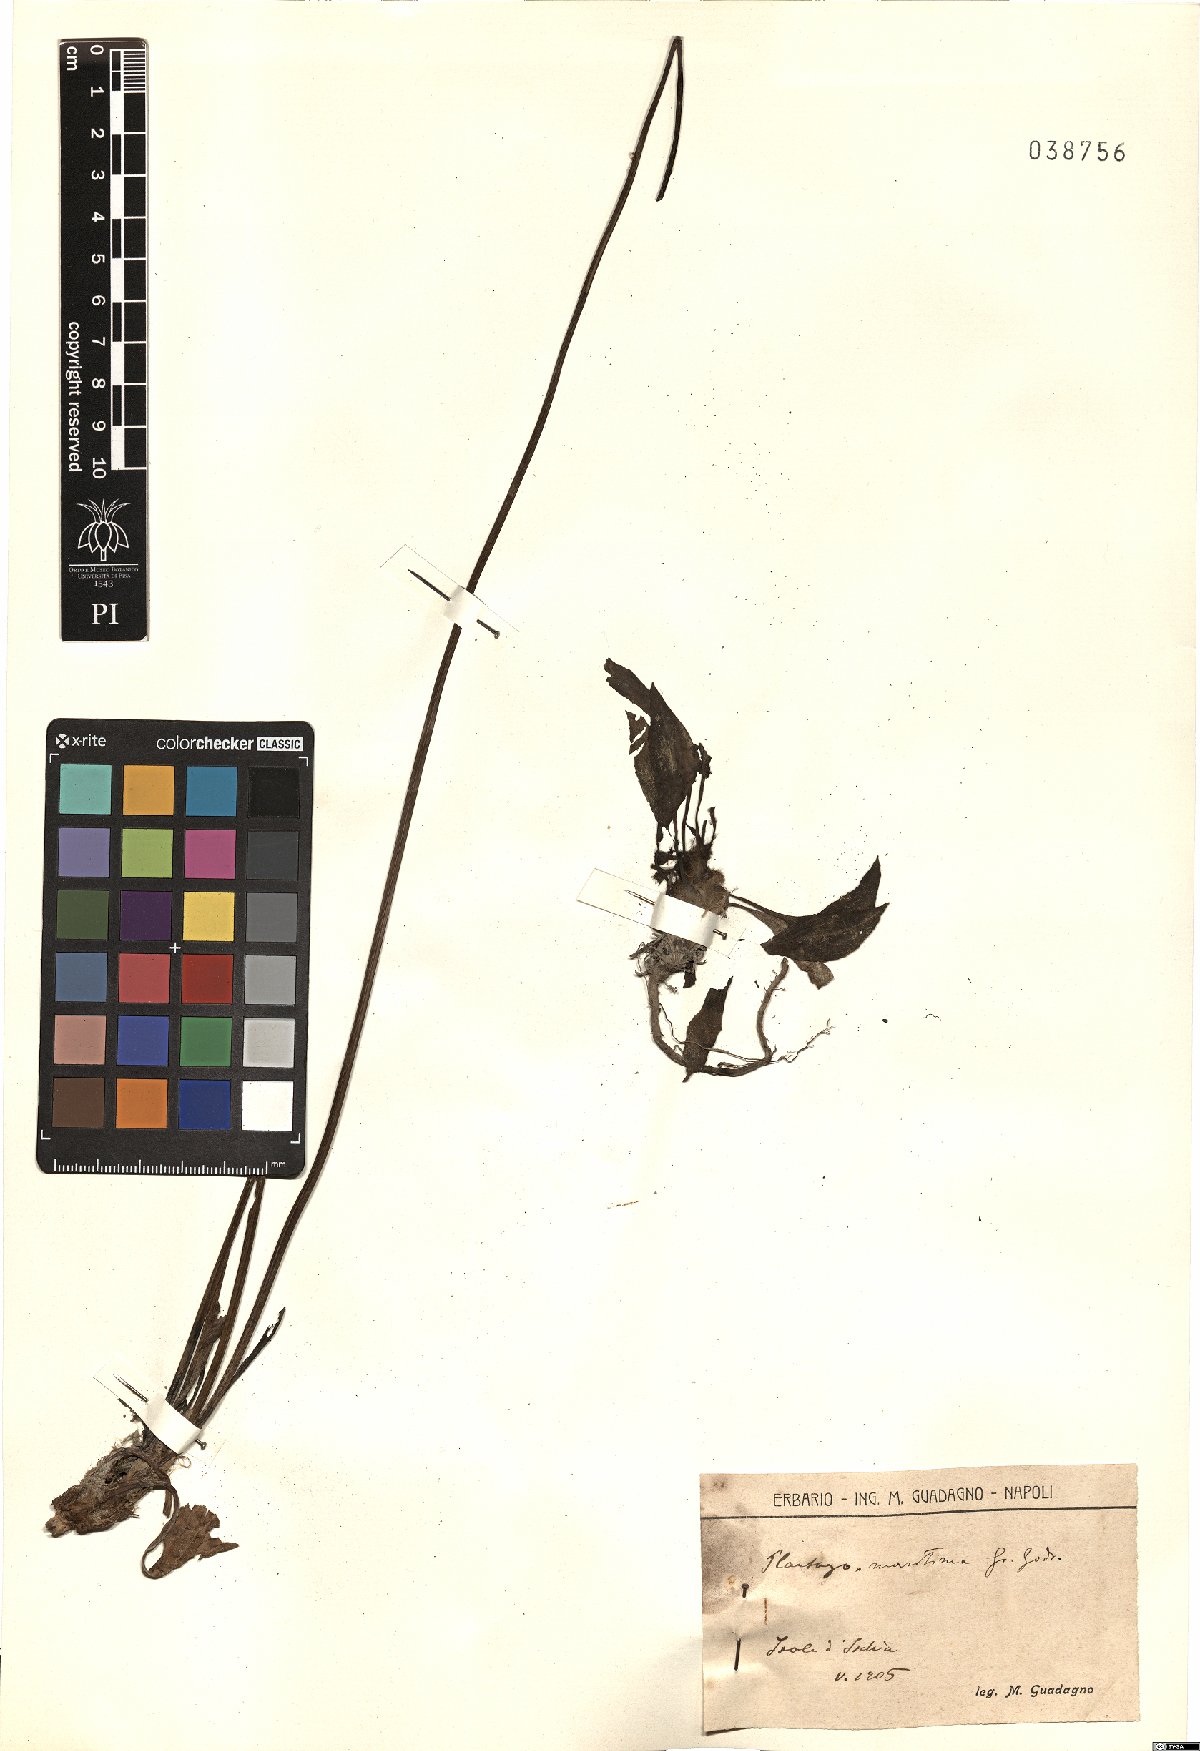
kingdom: Plantae
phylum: Tracheophyta
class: Magnoliopsida
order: Lamiales
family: Plantaginaceae
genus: Plantago
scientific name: Plantago maritima
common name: Sea plantain
